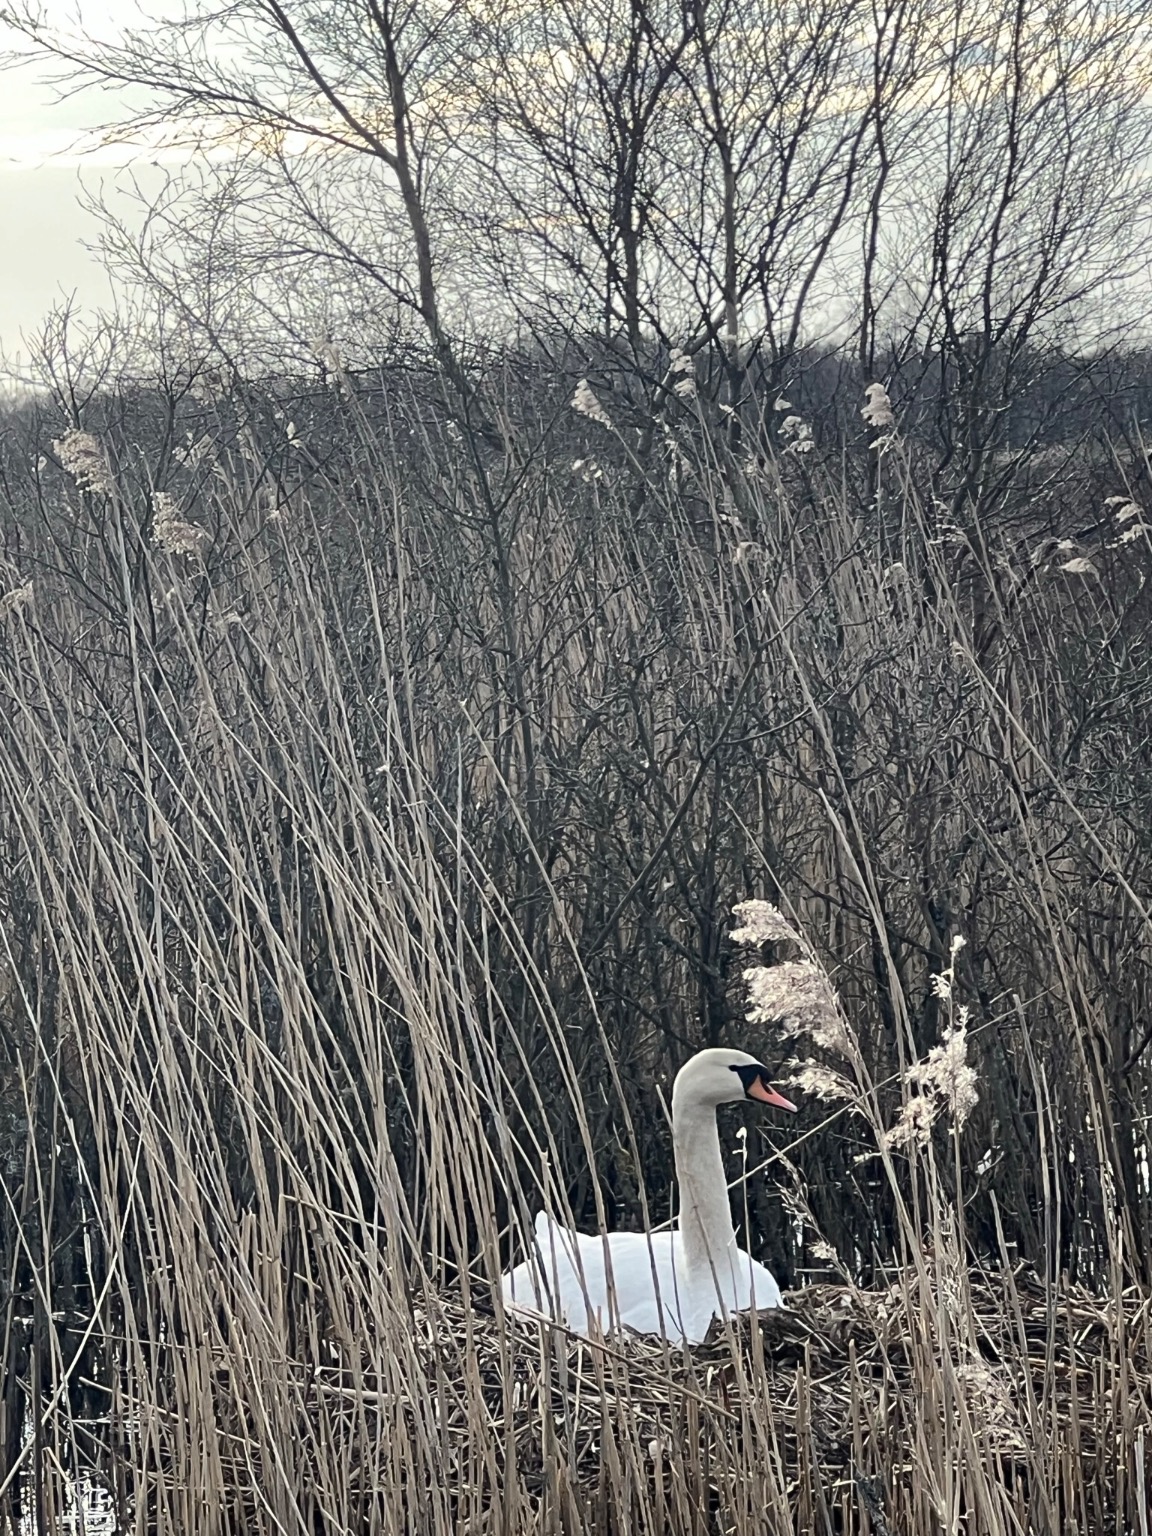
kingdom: Animalia
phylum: Chordata
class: Aves
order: Anseriformes
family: Anatidae
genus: Cygnus
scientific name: Cygnus olor
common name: Knopsvane
